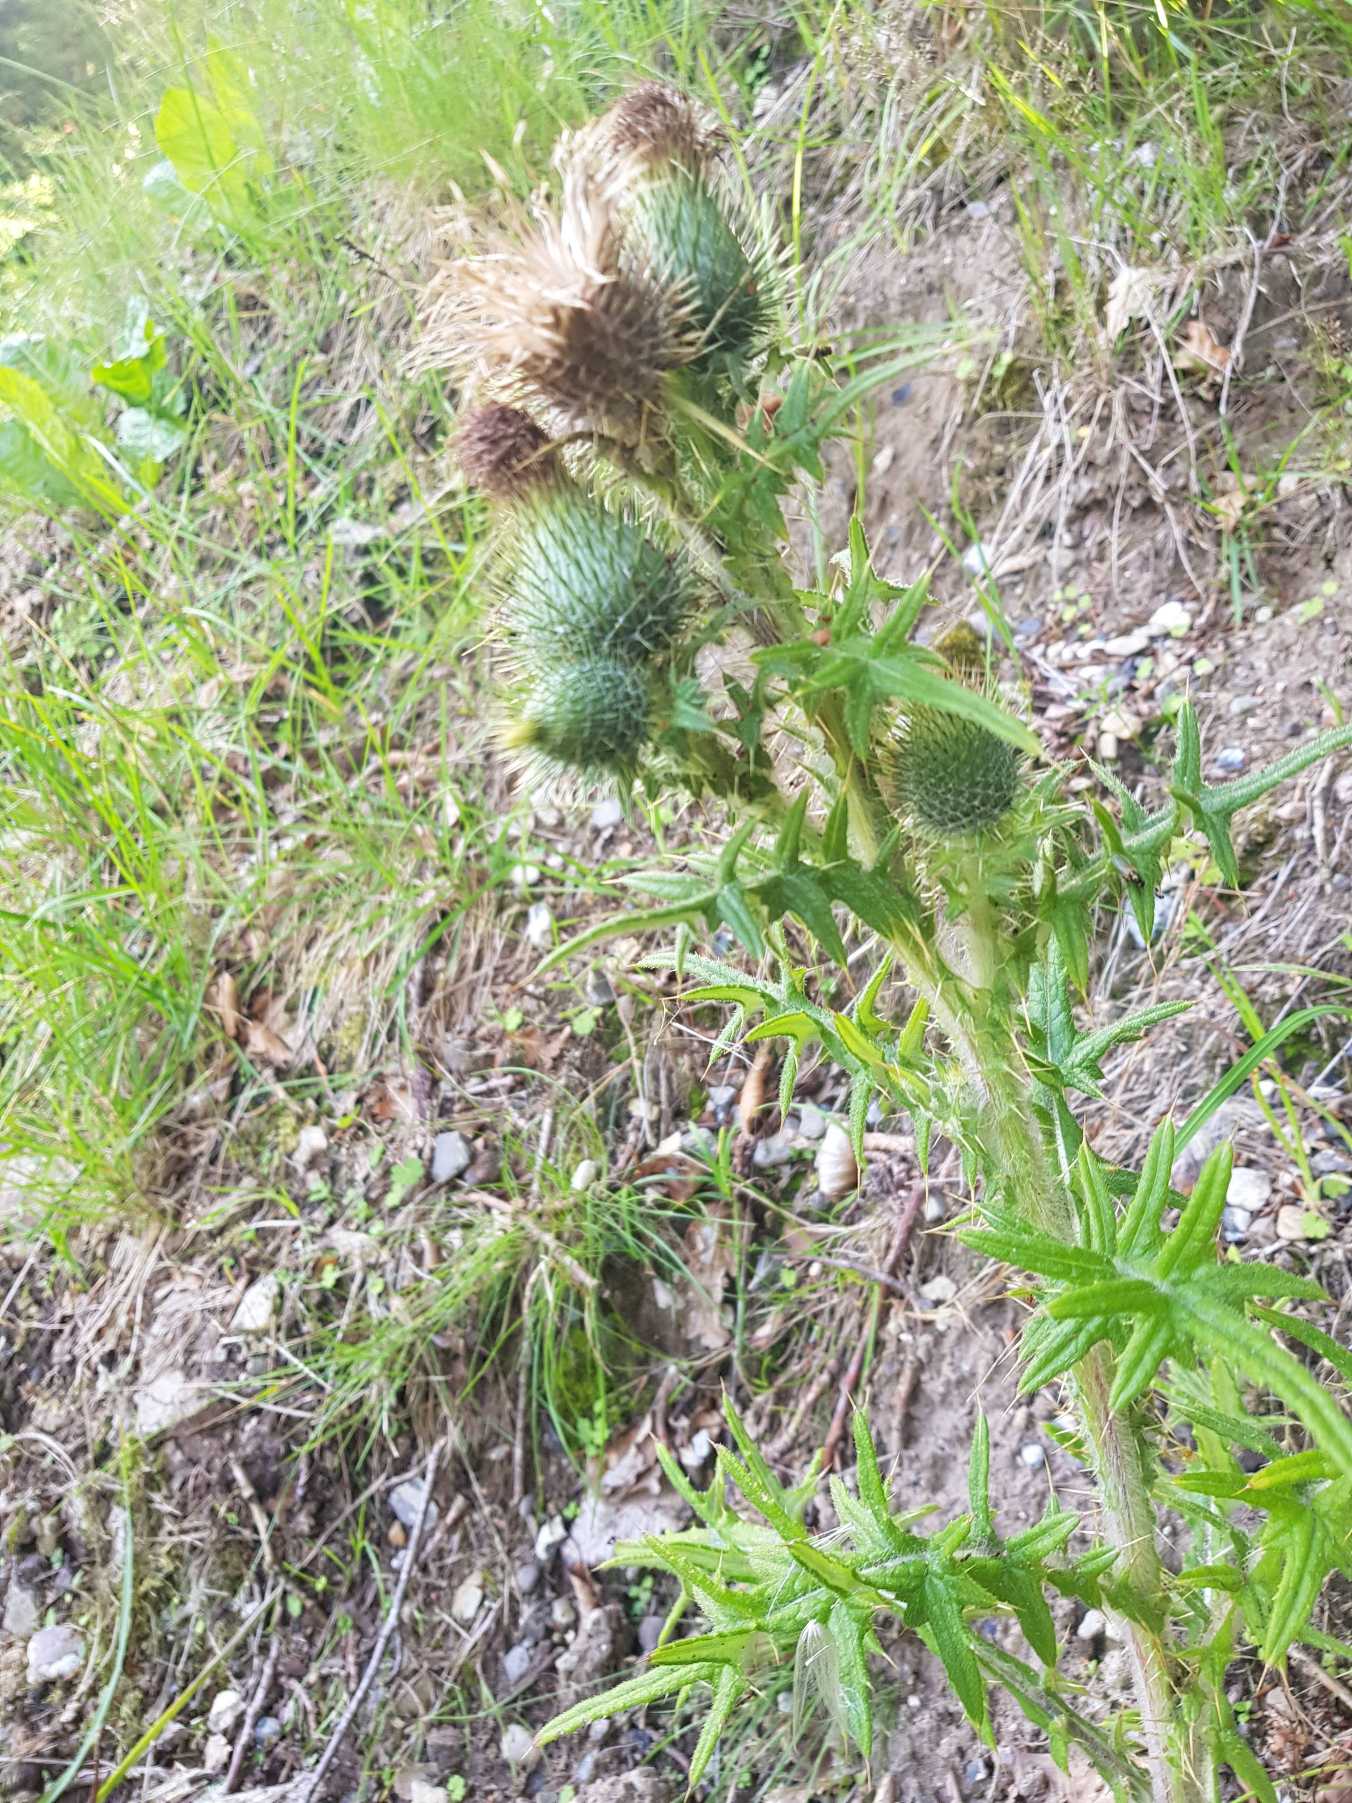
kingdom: Plantae
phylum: Tracheophyta
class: Magnoliopsida
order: Asterales
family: Asteraceae
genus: Cirsium
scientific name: Cirsium vulgare
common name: Horse-tidsel
